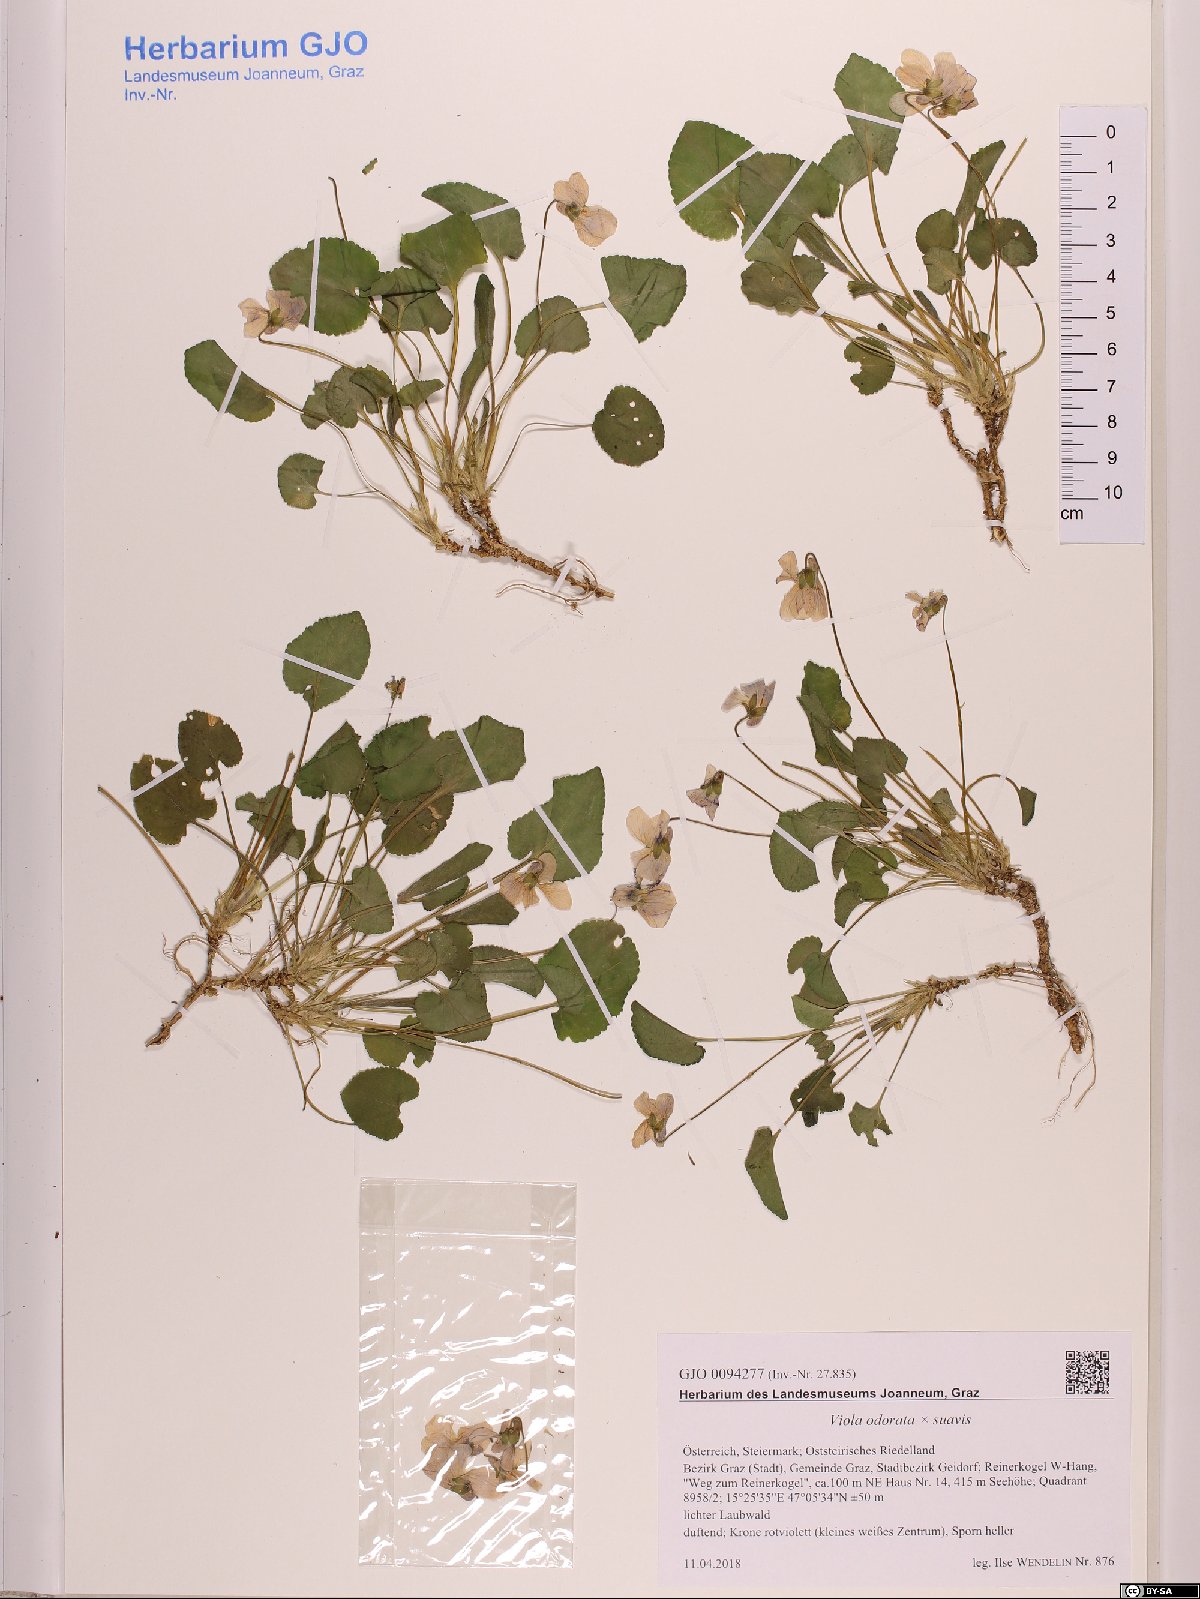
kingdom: Plantae
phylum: Tracheophyta
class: Magnoliopsida
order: Malpighiales
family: Violaceae
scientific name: Violaceae
